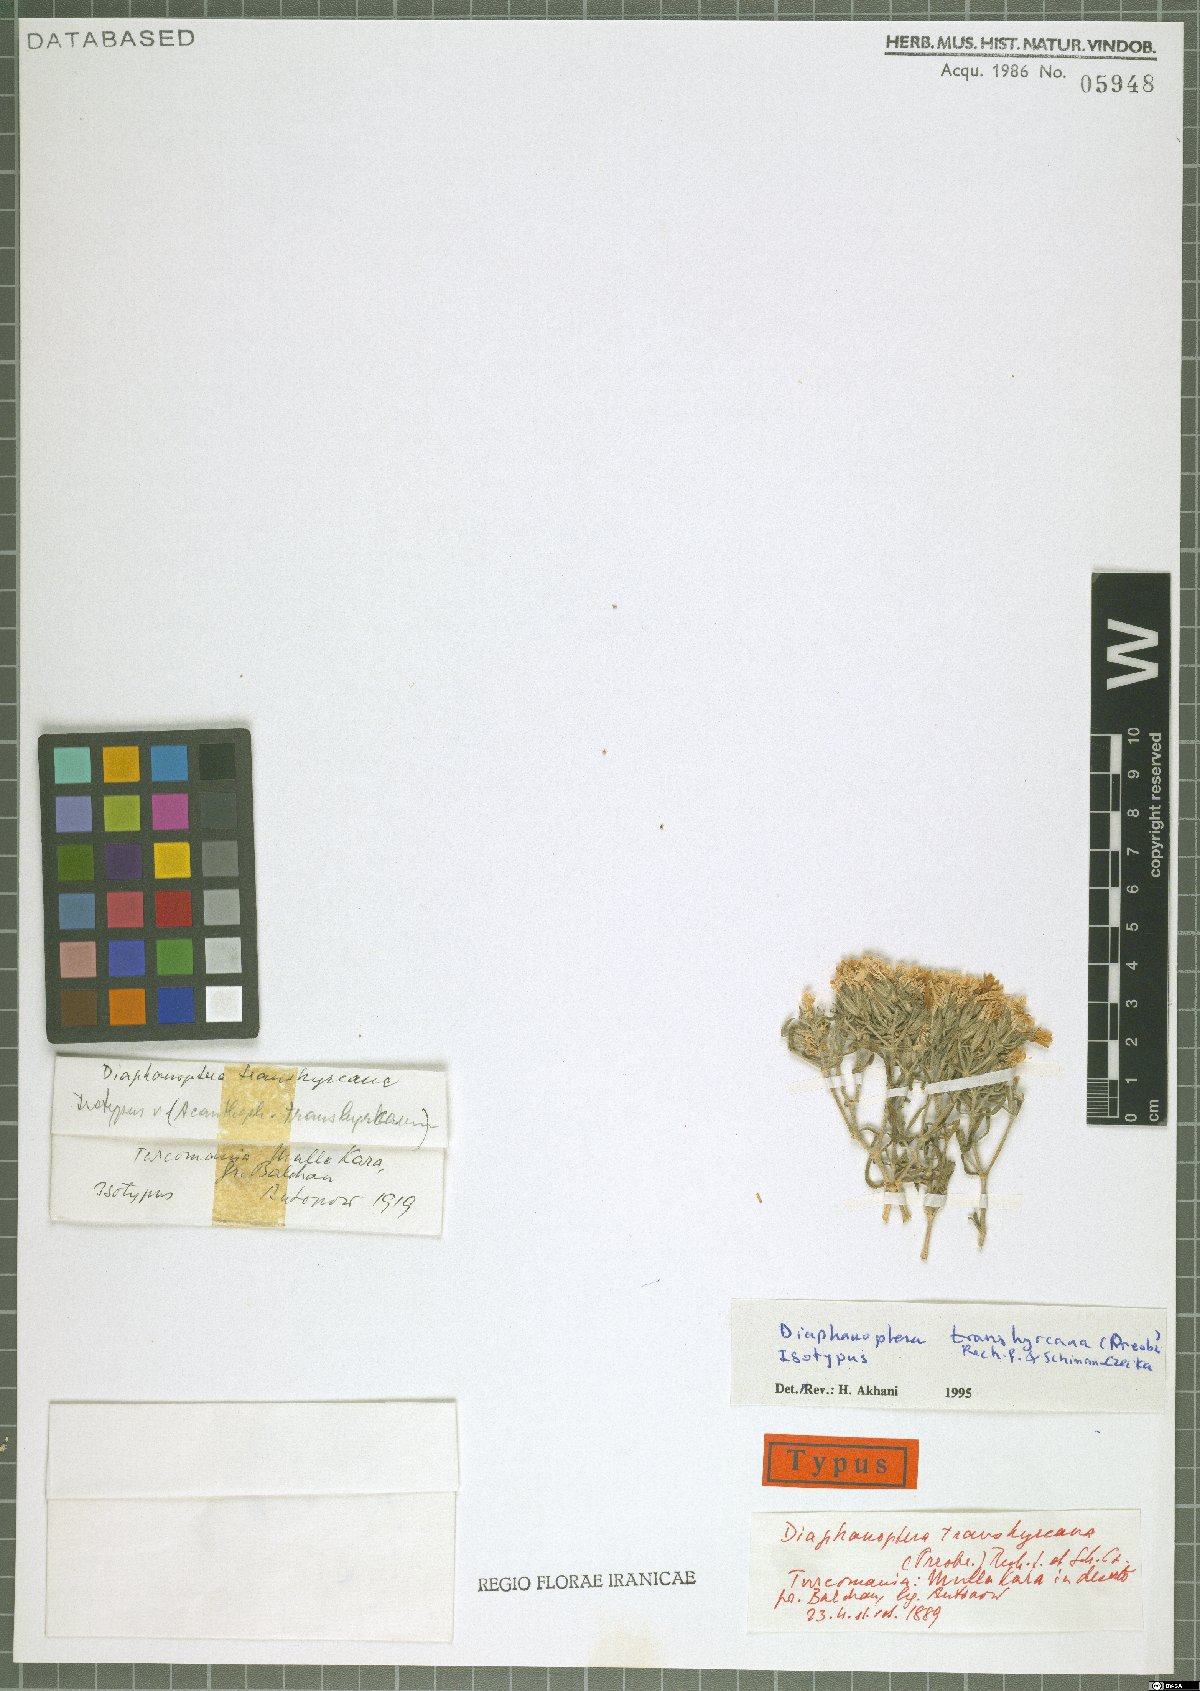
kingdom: Plantae
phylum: Tracheophyta
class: Magnoliopsida
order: Caryophyllales
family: Caryophyllaceae
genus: Acanthophyllum
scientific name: Acanthophyllum transhyrcanum
